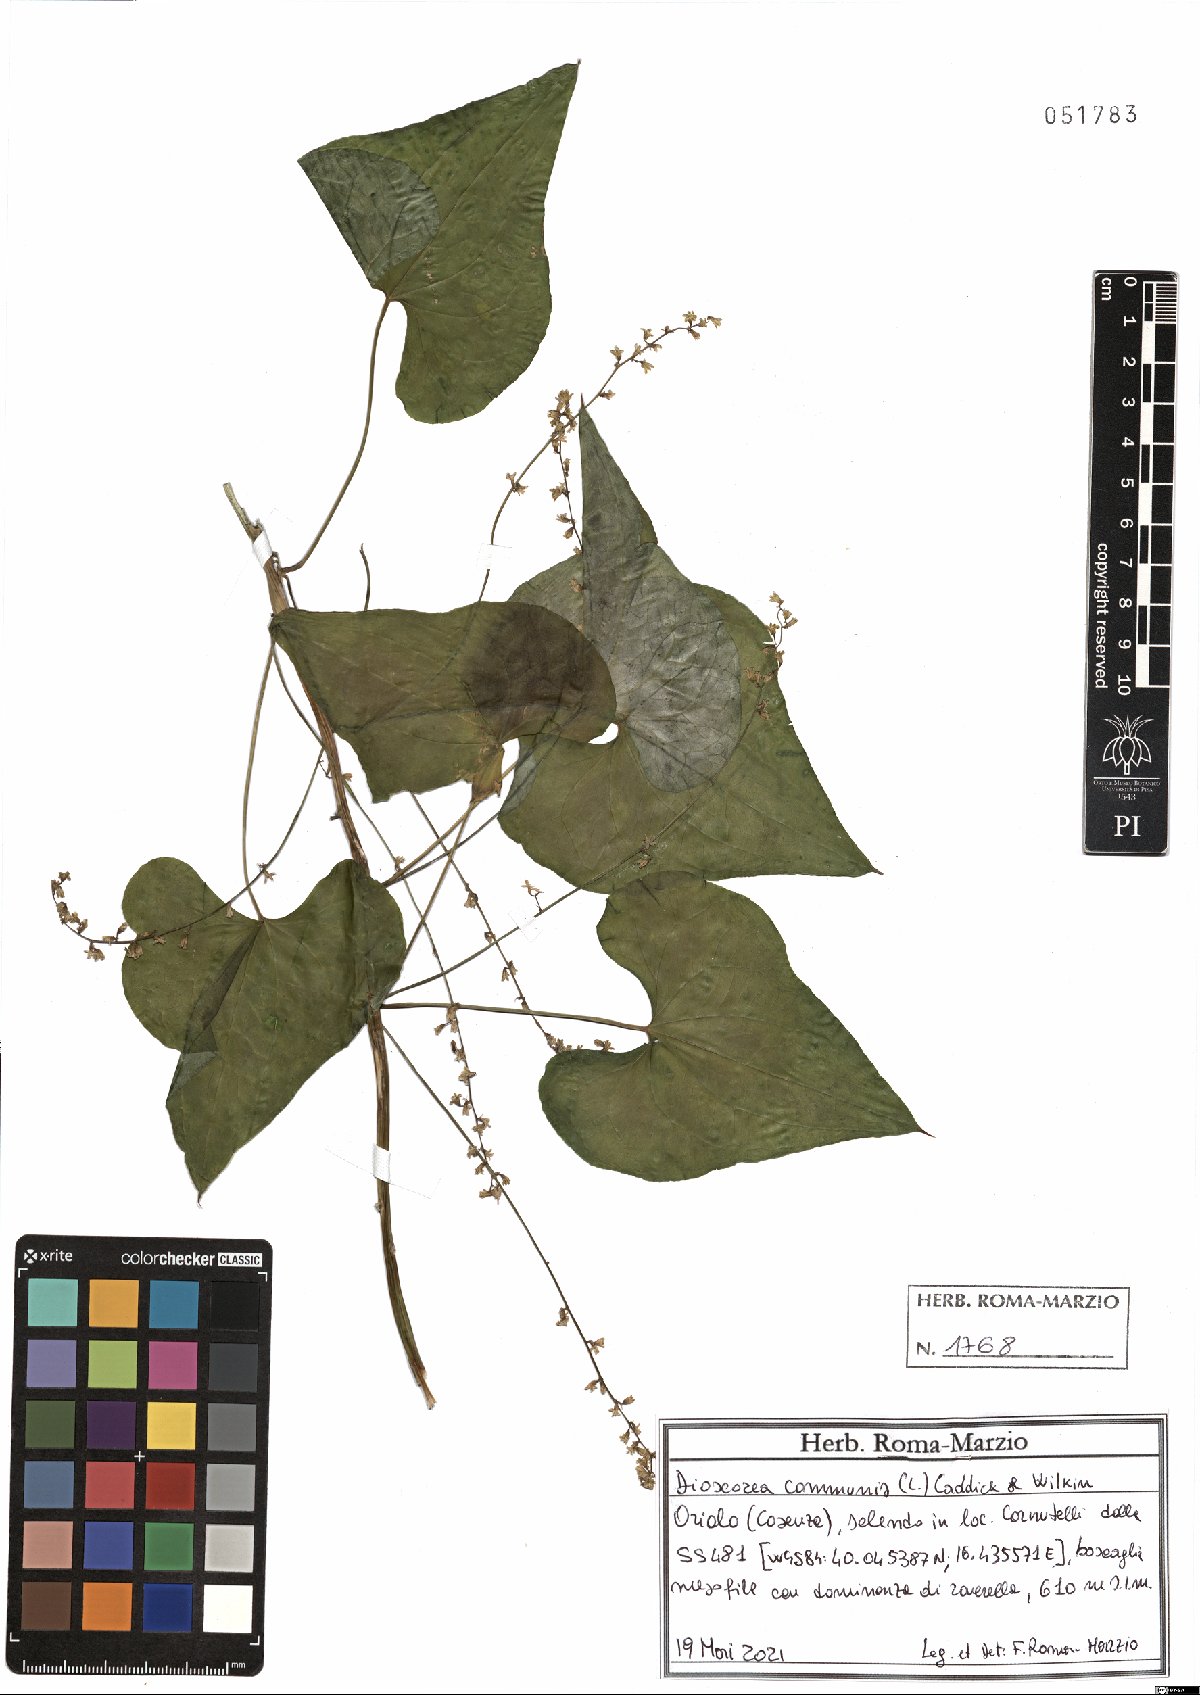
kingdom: Plantae
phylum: Tracheophyta
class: Liliopsida
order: Dioscoreales
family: Dioscoreaceae
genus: Dioscorea
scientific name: Dioscorea communis
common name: Black-bindweed
